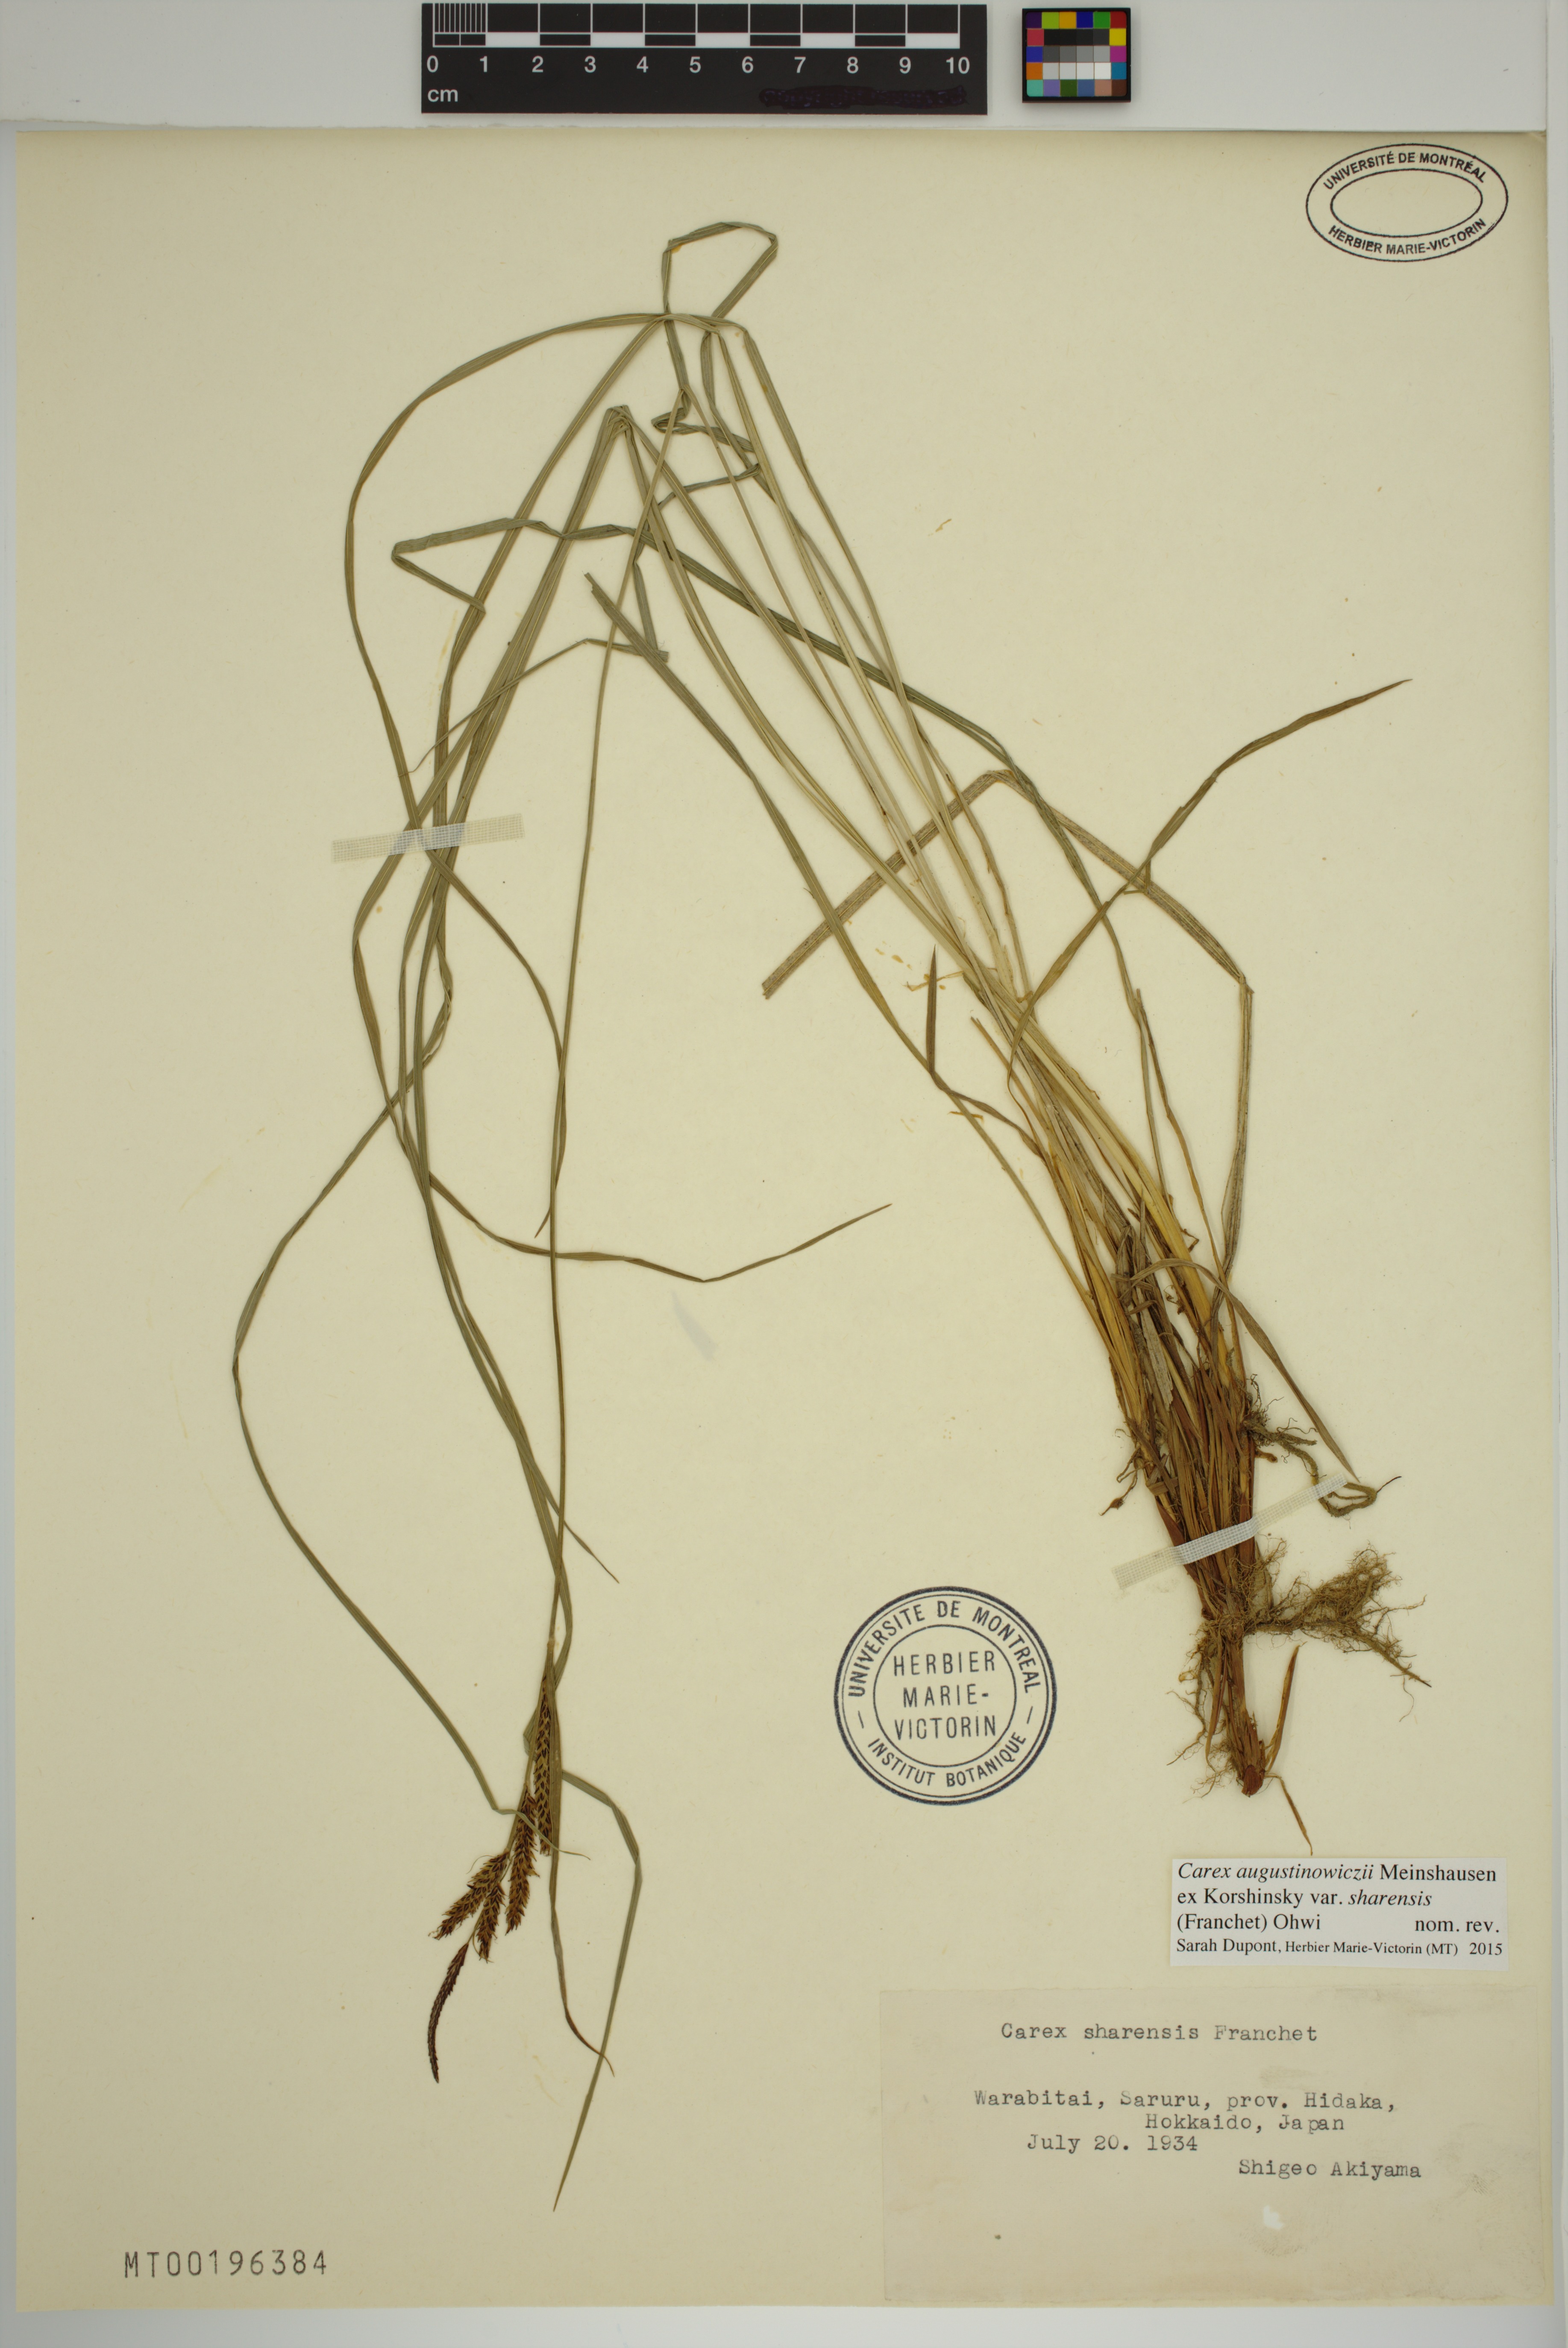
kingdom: Plantae
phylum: Tracheophyta
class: Liliopsida
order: Poales
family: Cyperaceae
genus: Carex
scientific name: Carex augustinowiczii
